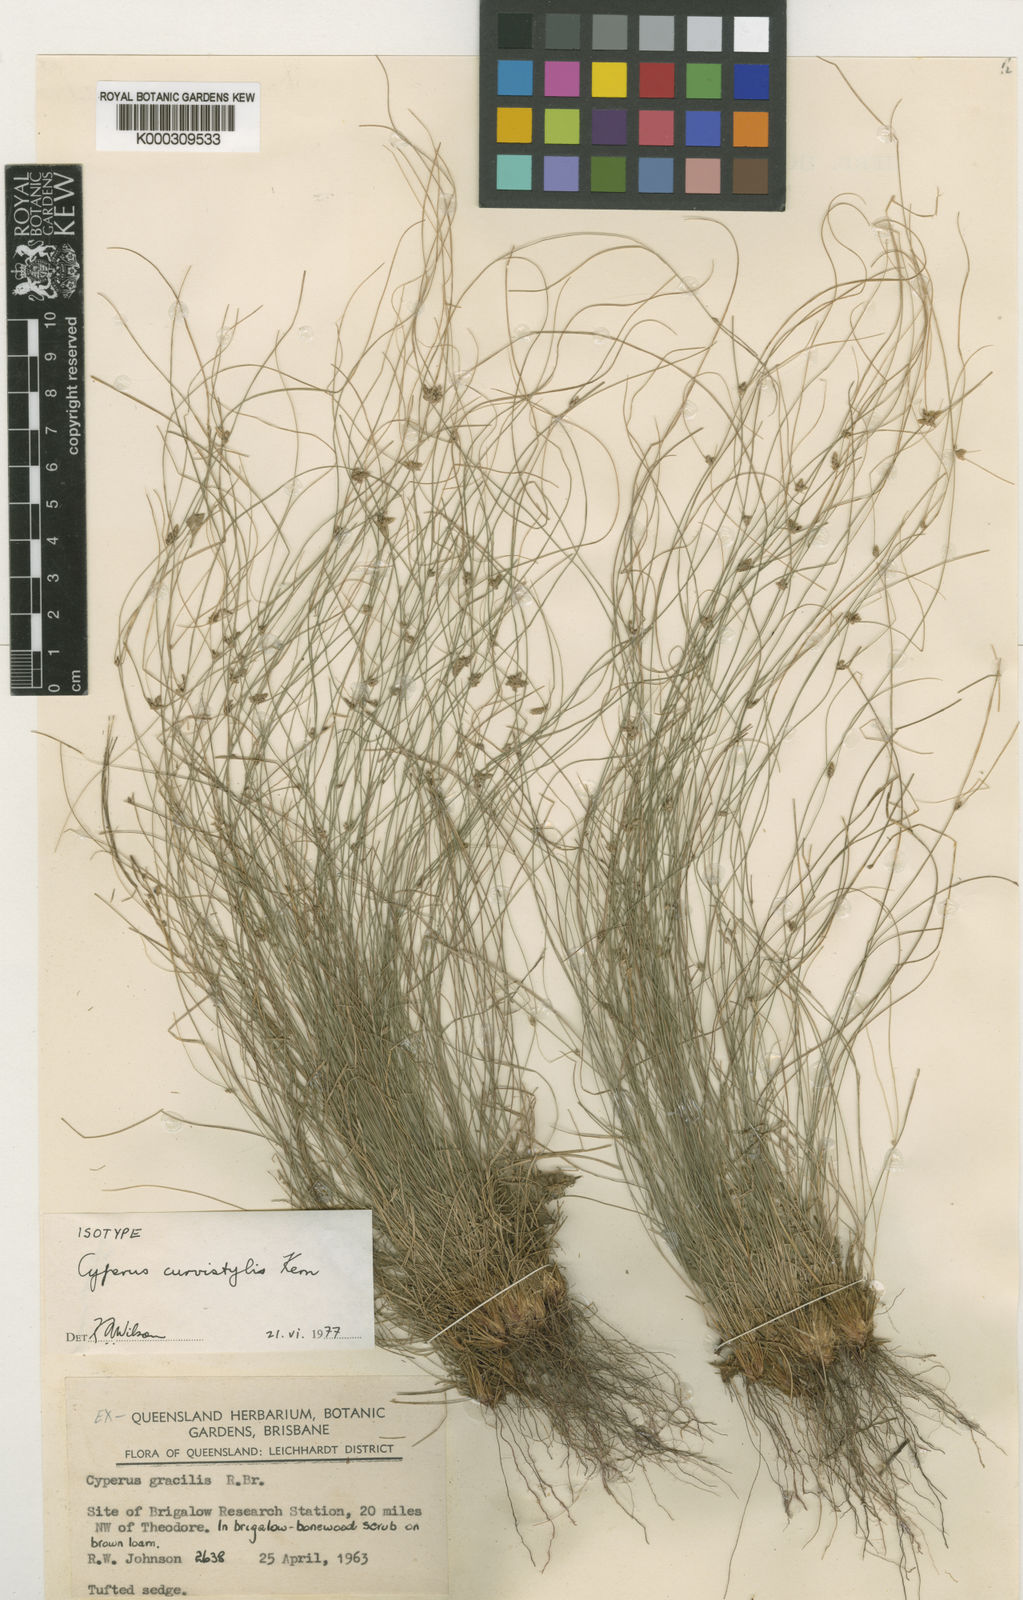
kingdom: Plantae
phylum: Tracheophyta
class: Liliopsida
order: Poales
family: Cyperaceae
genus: Cyperus
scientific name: Cyperus curvistylis
